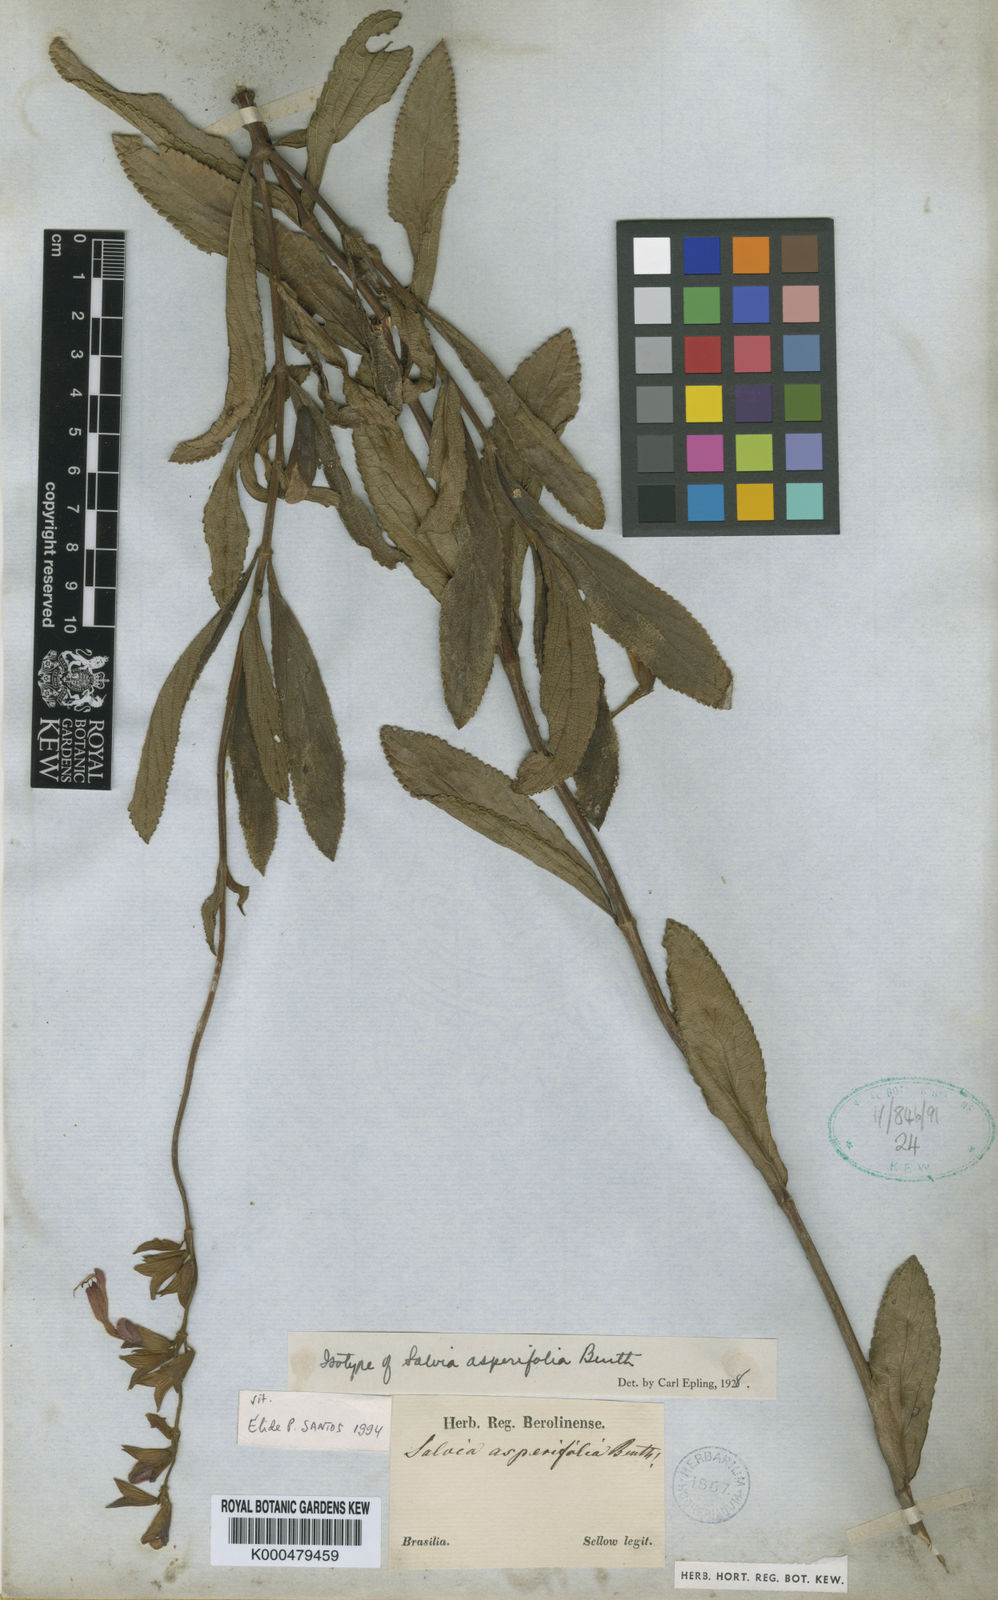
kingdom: Plantae
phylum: Tracheophyta
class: Magnoliopsida
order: Lamiales
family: Lamiaceae
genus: Salvia
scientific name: Salvia scabrida
